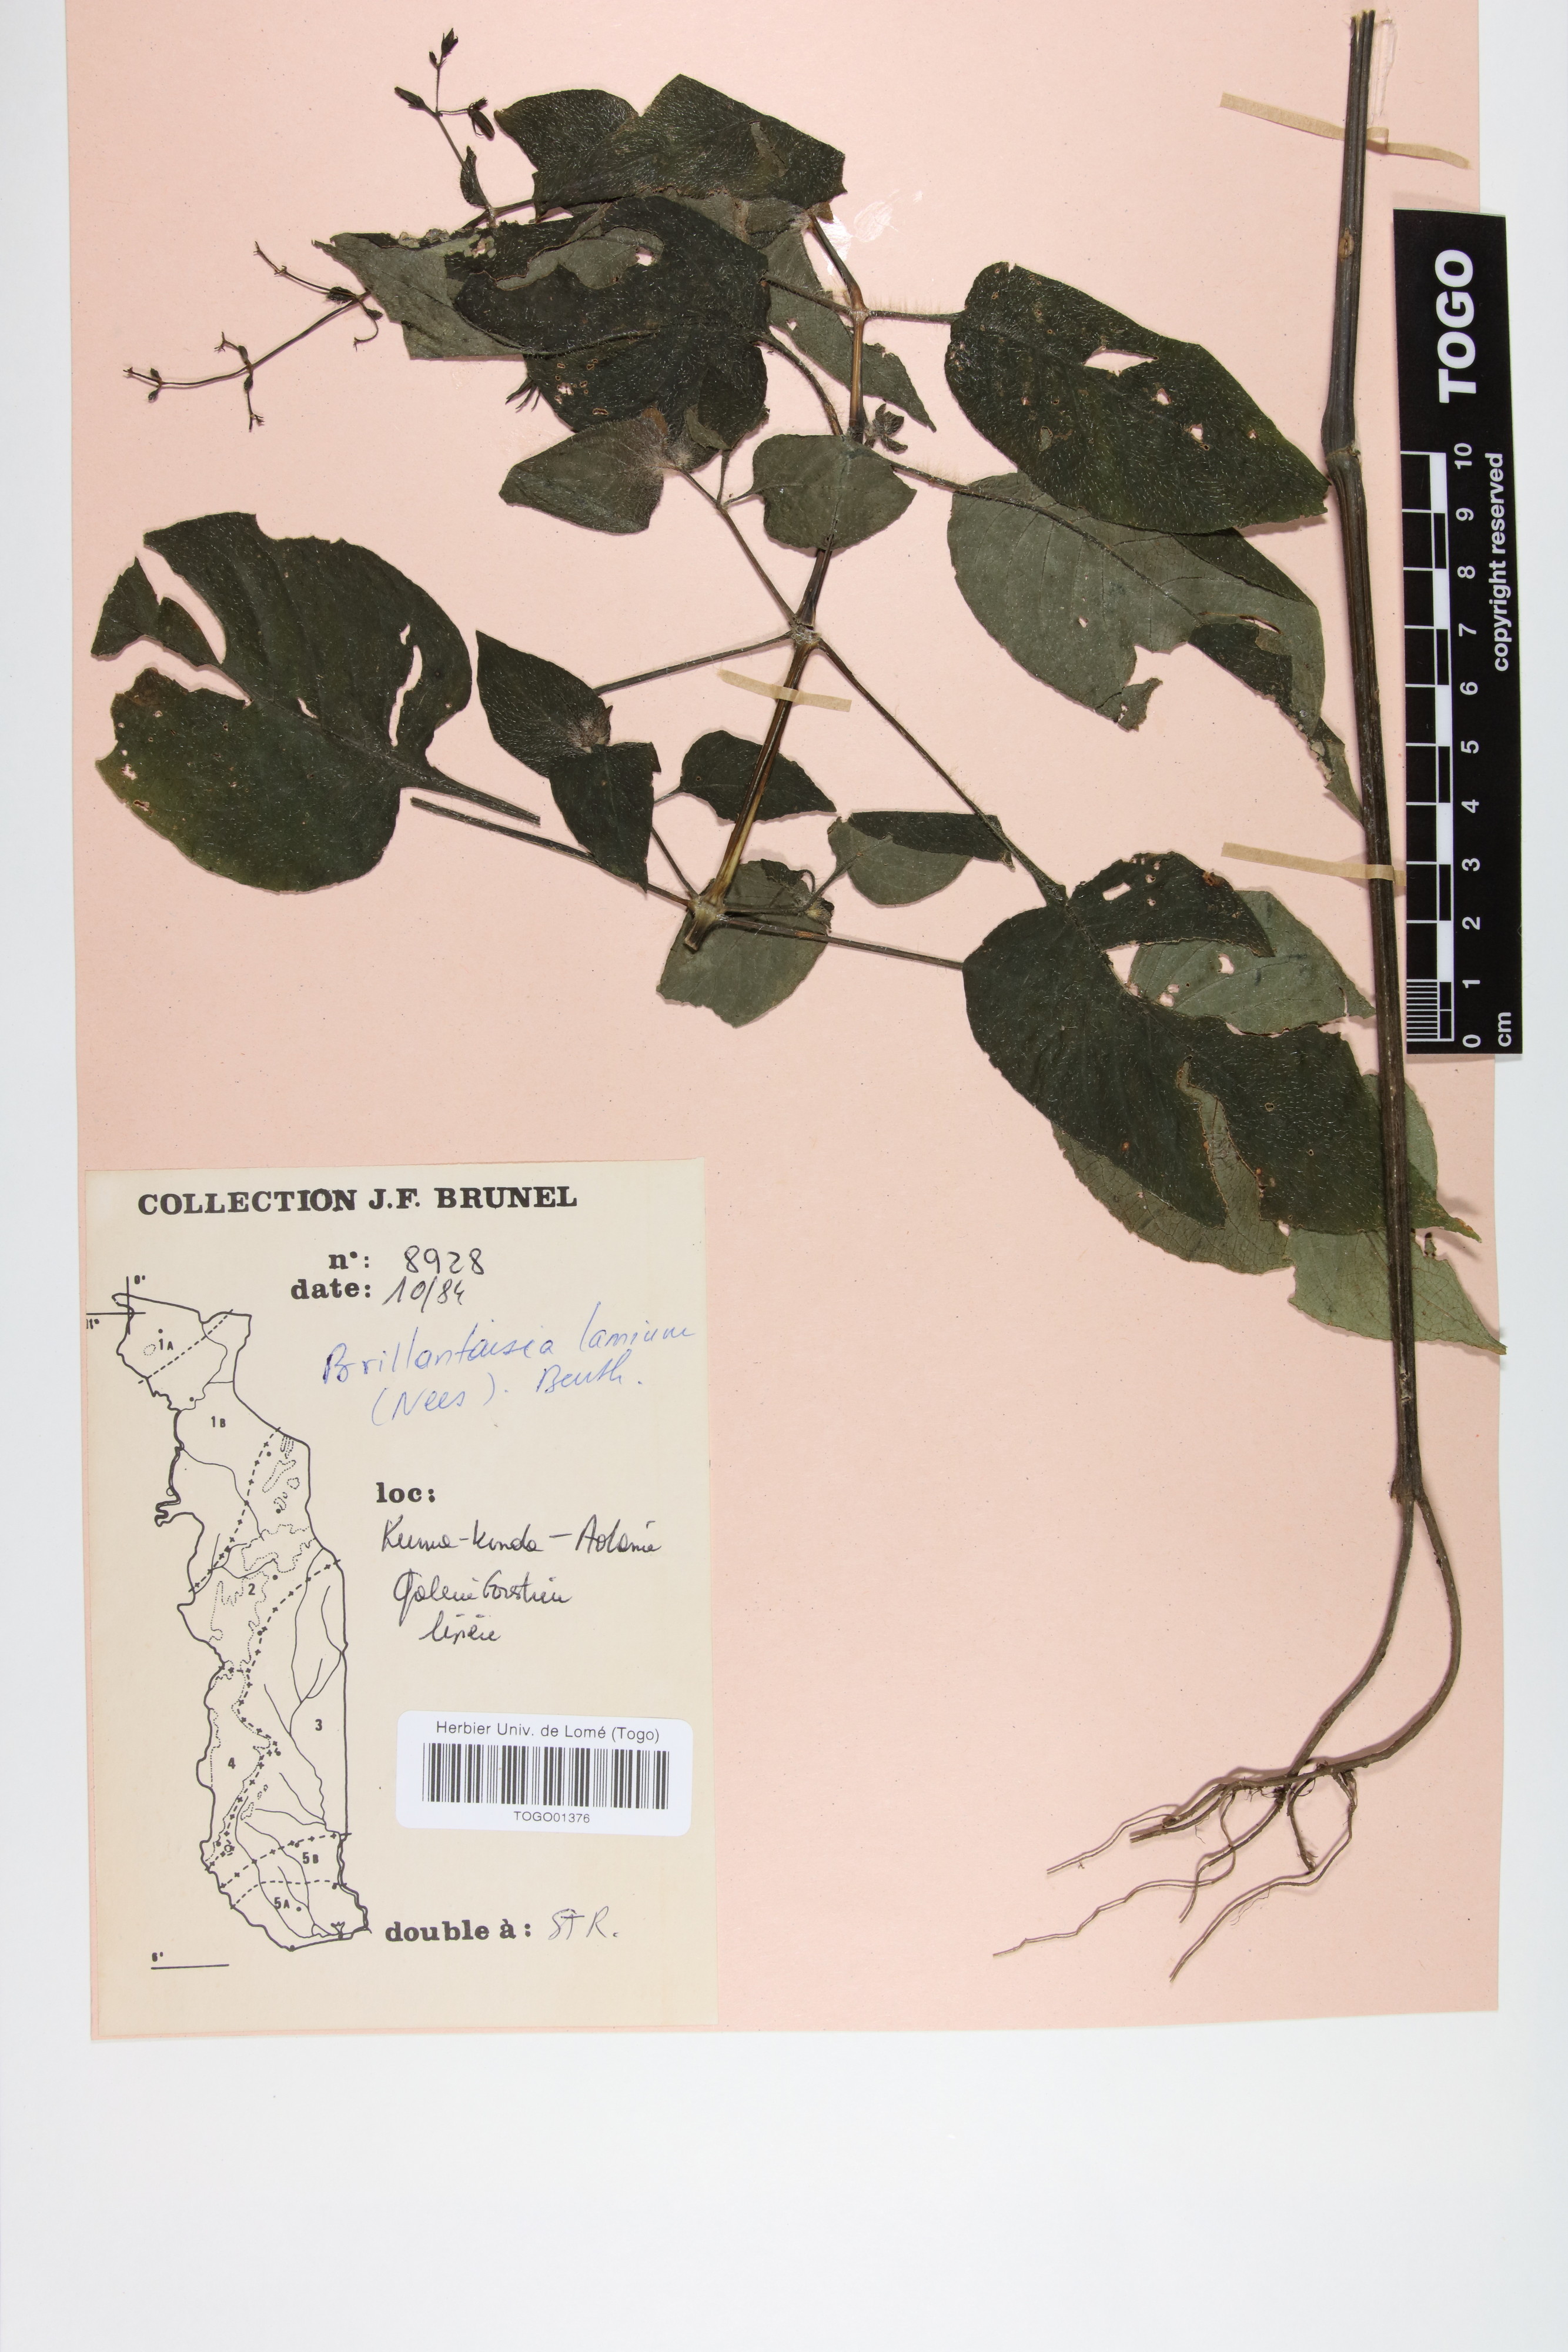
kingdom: Plantae
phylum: Tracheophyta
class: Magnoliopsida
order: Lamiales
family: Acanthaceae
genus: Brillantaisia
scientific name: Brillantaisia lamium
